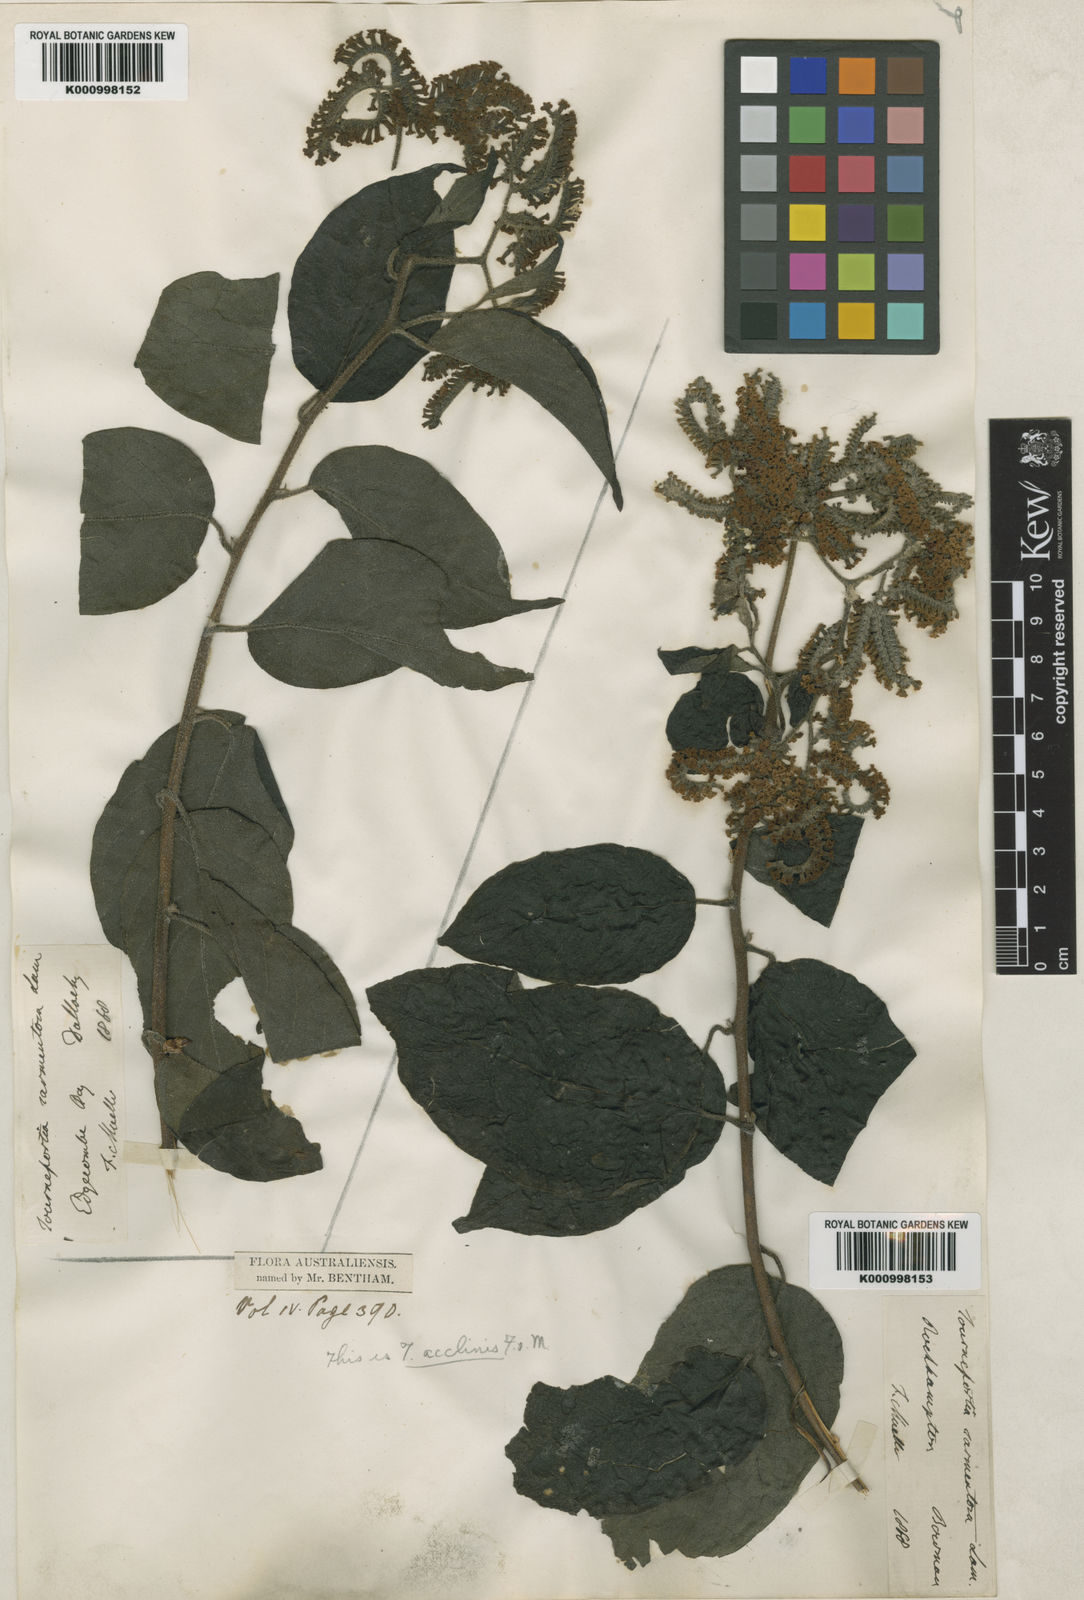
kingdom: Plantae
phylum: Tracheophyta
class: Magnoliopsida
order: Boraginales
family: Heliotropiaceae
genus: Heliotropium
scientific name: Heliotropium sarmentosum
